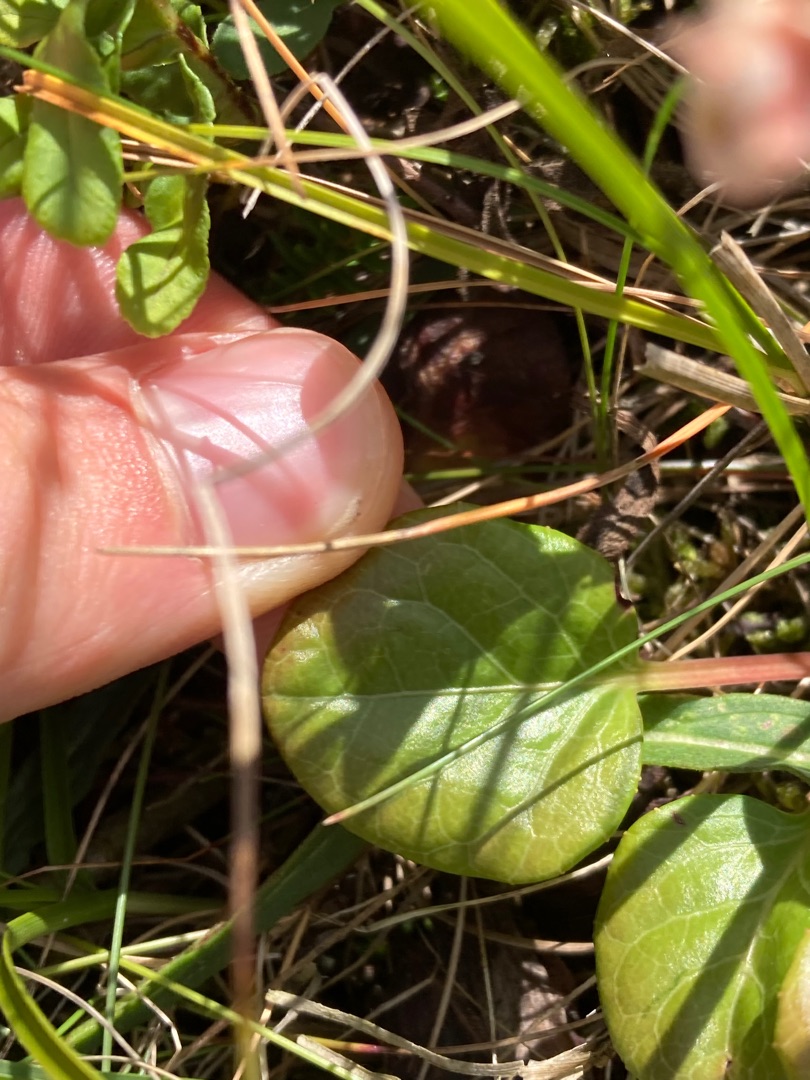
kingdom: Plantae
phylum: Tracheophyta
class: Magnoliopsida
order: Ericales
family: Ericaceae
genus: Pyrola
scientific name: Pyrola rotundifolia
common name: Mose-vintergrøn (underart)
